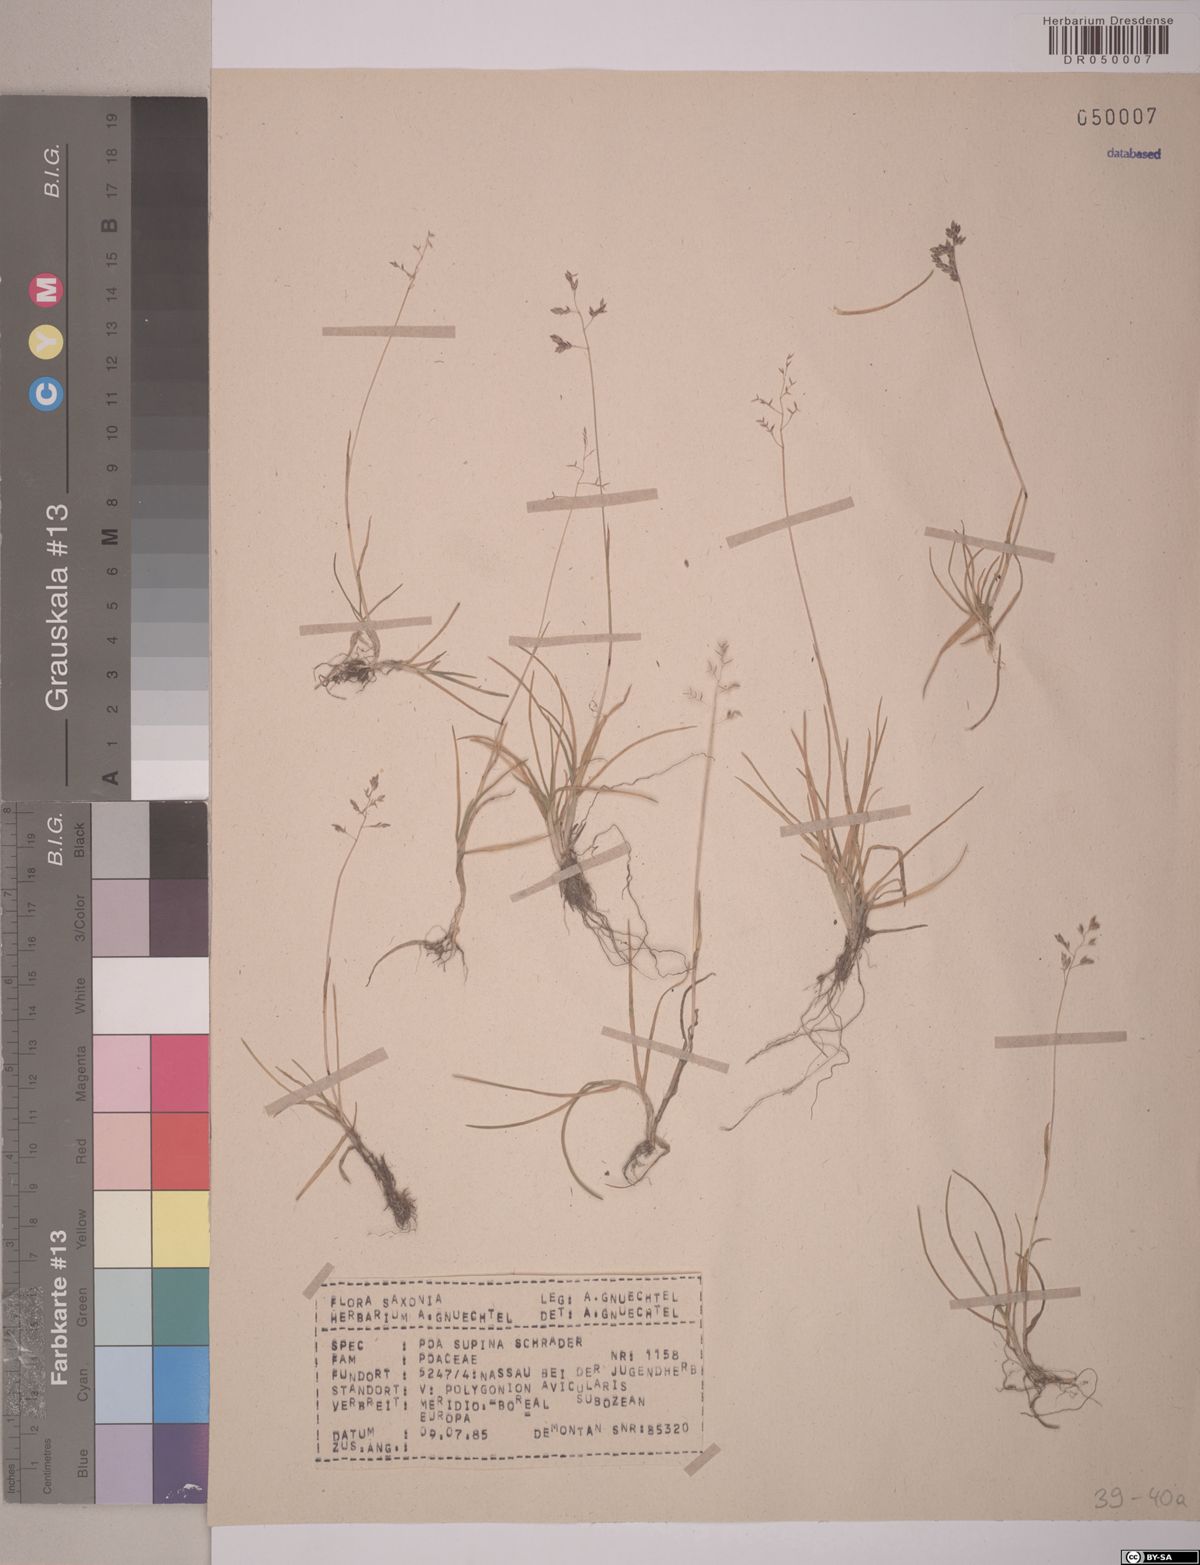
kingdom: Plantae
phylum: Tracheophyta
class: Liliopsida
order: Poales
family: Poaceae
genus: Poa
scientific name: Poa supina
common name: Supina bluegrass
